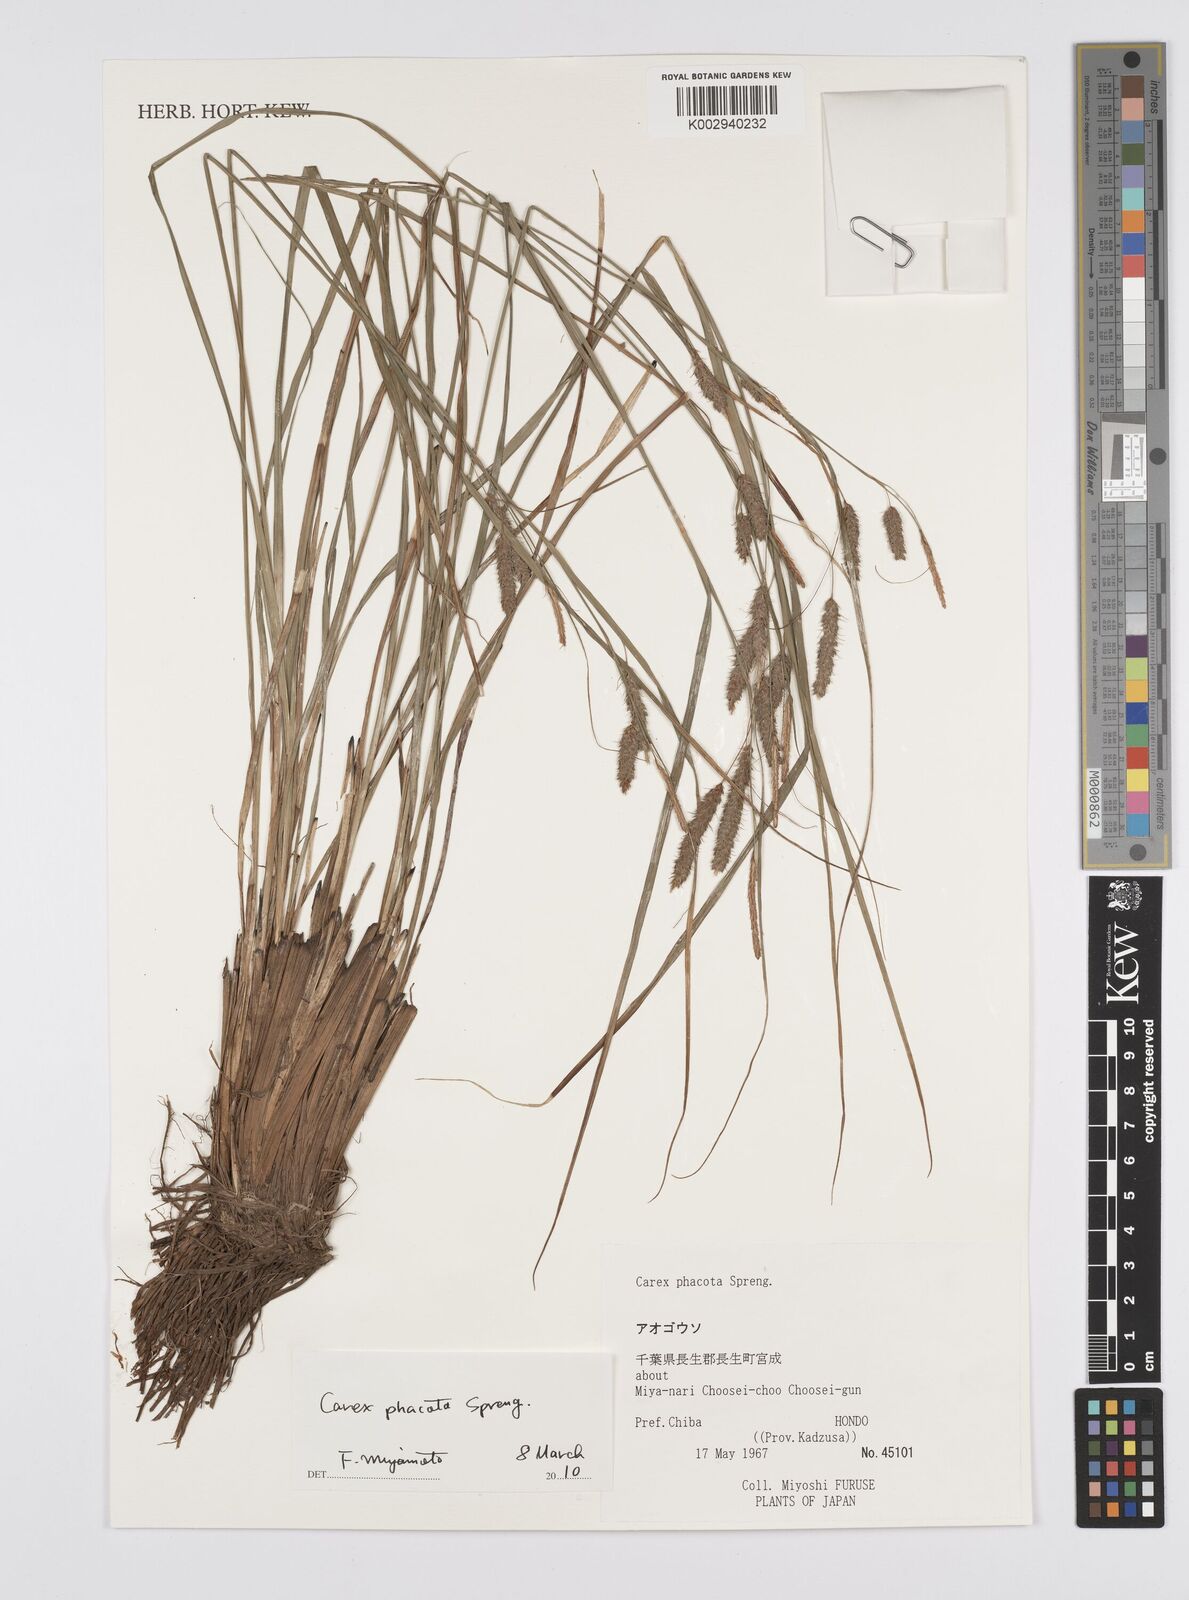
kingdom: Plantae
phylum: Tracheophyta
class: Liliopsida
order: Poales
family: Cyperaceae
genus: Carex
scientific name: Carex phacota
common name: Lakeshore sedge
